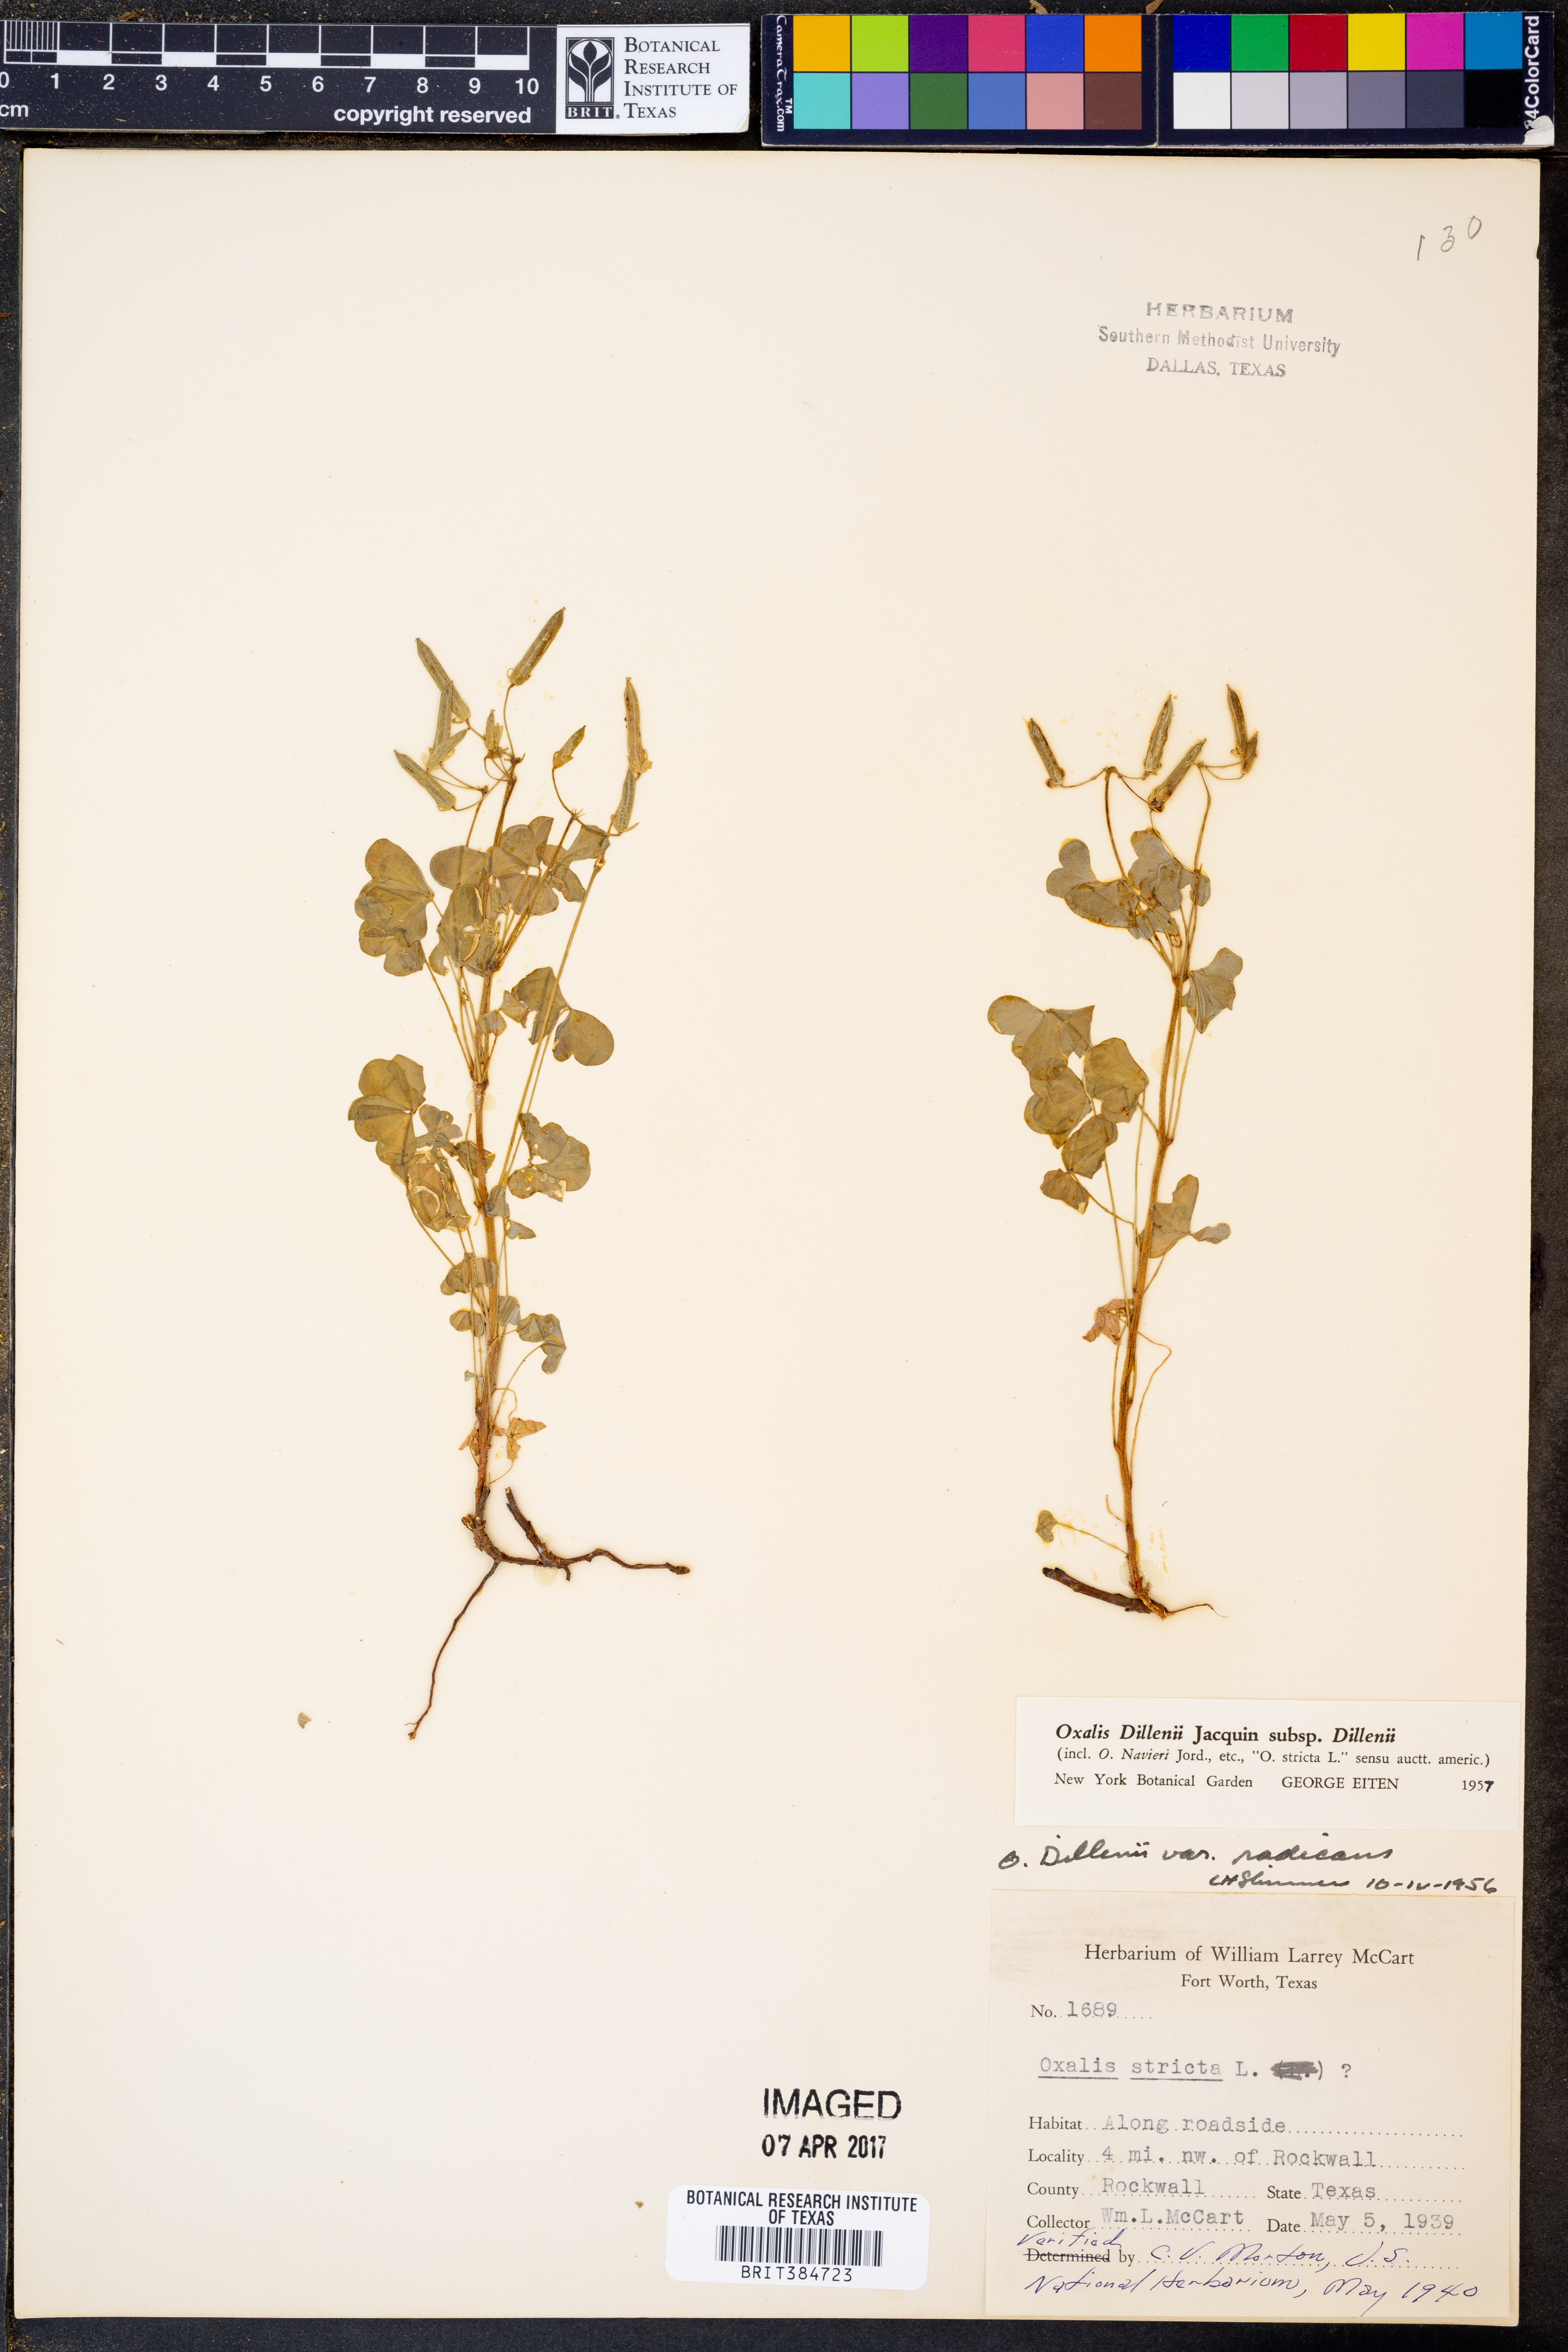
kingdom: Plantae
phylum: Tracheophyta
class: Magnoliopsida
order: Oxalidales
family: Oxalidaceae
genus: Oxalis
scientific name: Oxalis dillenii
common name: Sussex yellow-sorrel
